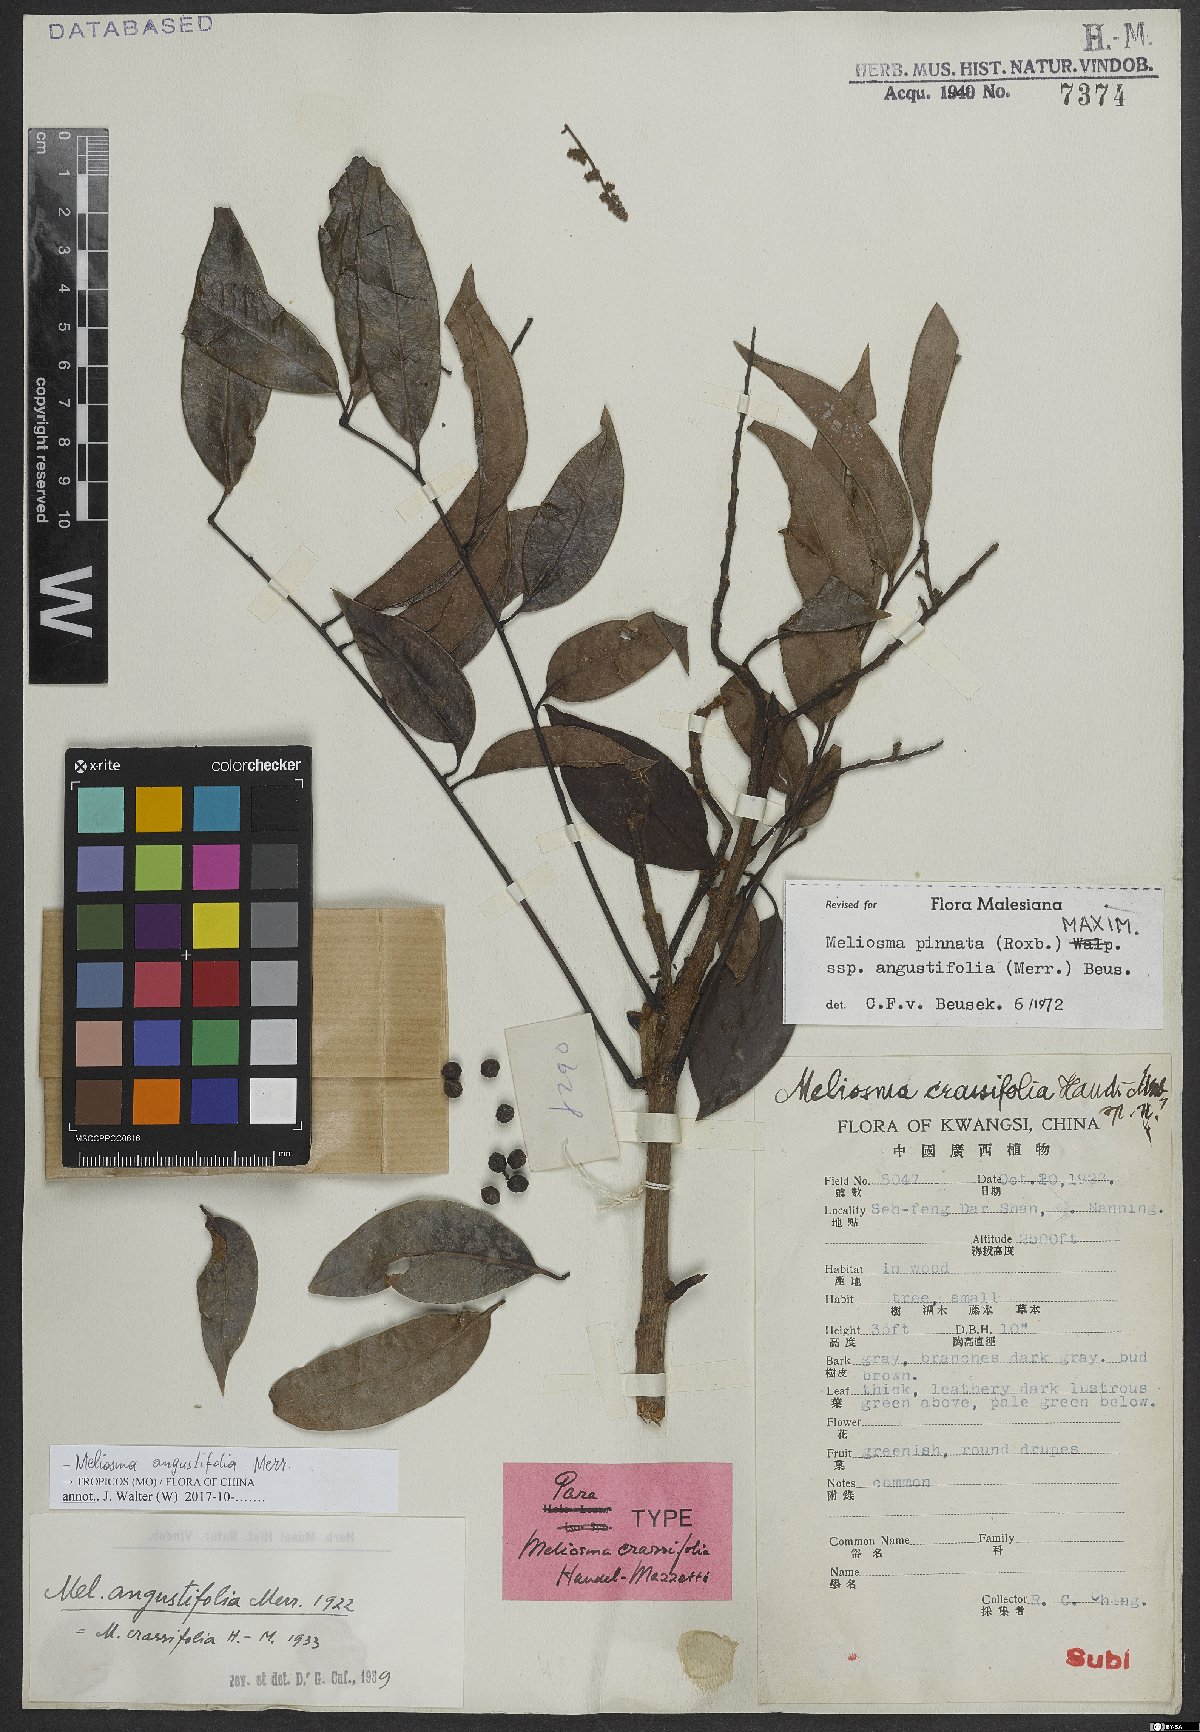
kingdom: Plantae
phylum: Tracheophyta
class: Magnoliopsida
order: Proteales
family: Sabiaceae
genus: Meliosma
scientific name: Meliosma angustifolia
